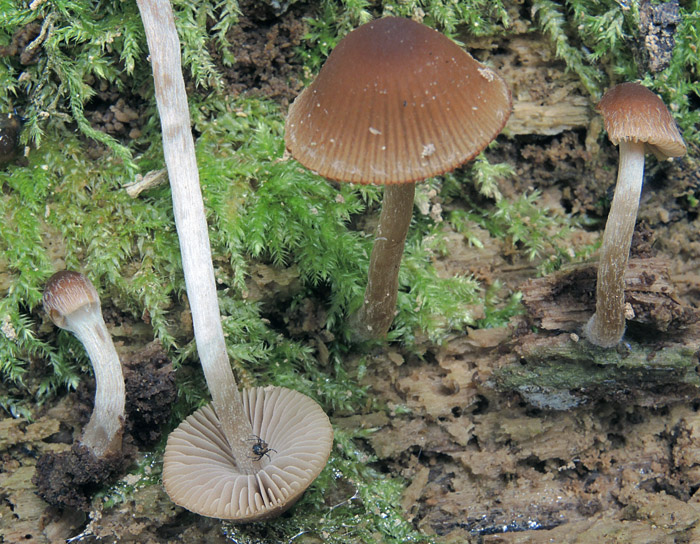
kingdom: Fungi
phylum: Basidiomycota
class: Agaricomycetes
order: Agaricales
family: Psathyrellaceae
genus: Psathyrella
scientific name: Psathyrella obtusata
